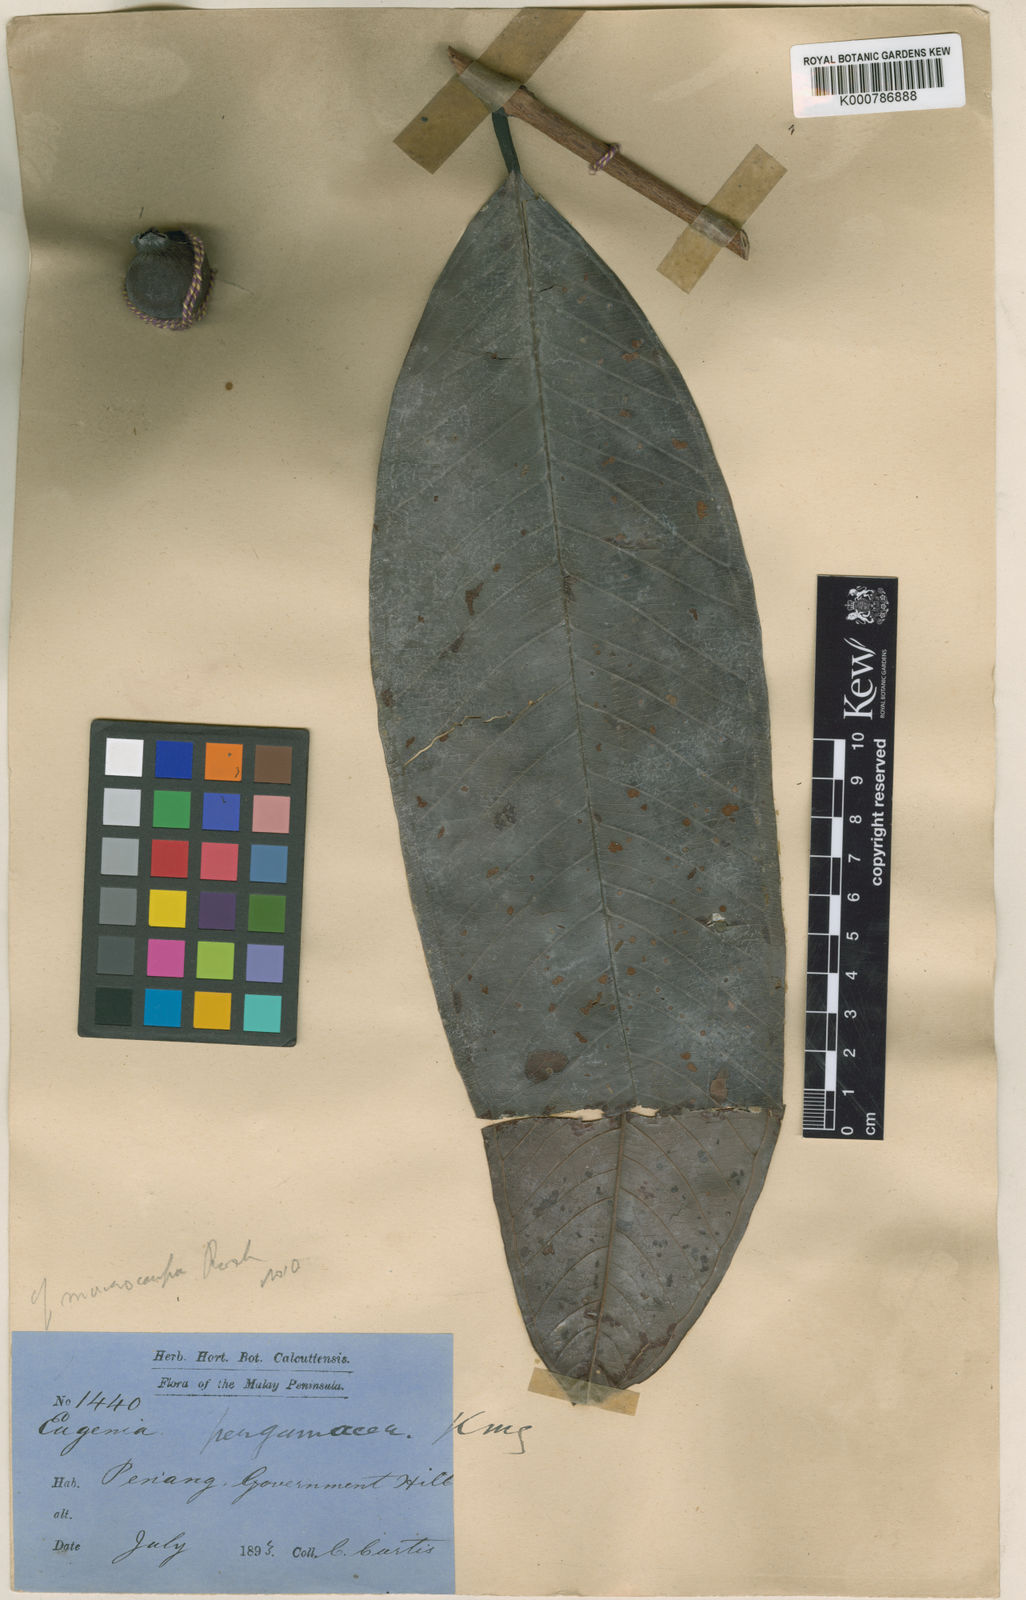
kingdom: Plantae
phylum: Tracheophyta
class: Magnoliopsida
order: Myrtales
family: Myrtaceae
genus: Syzygium
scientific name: Syzygium pergamentaceum
